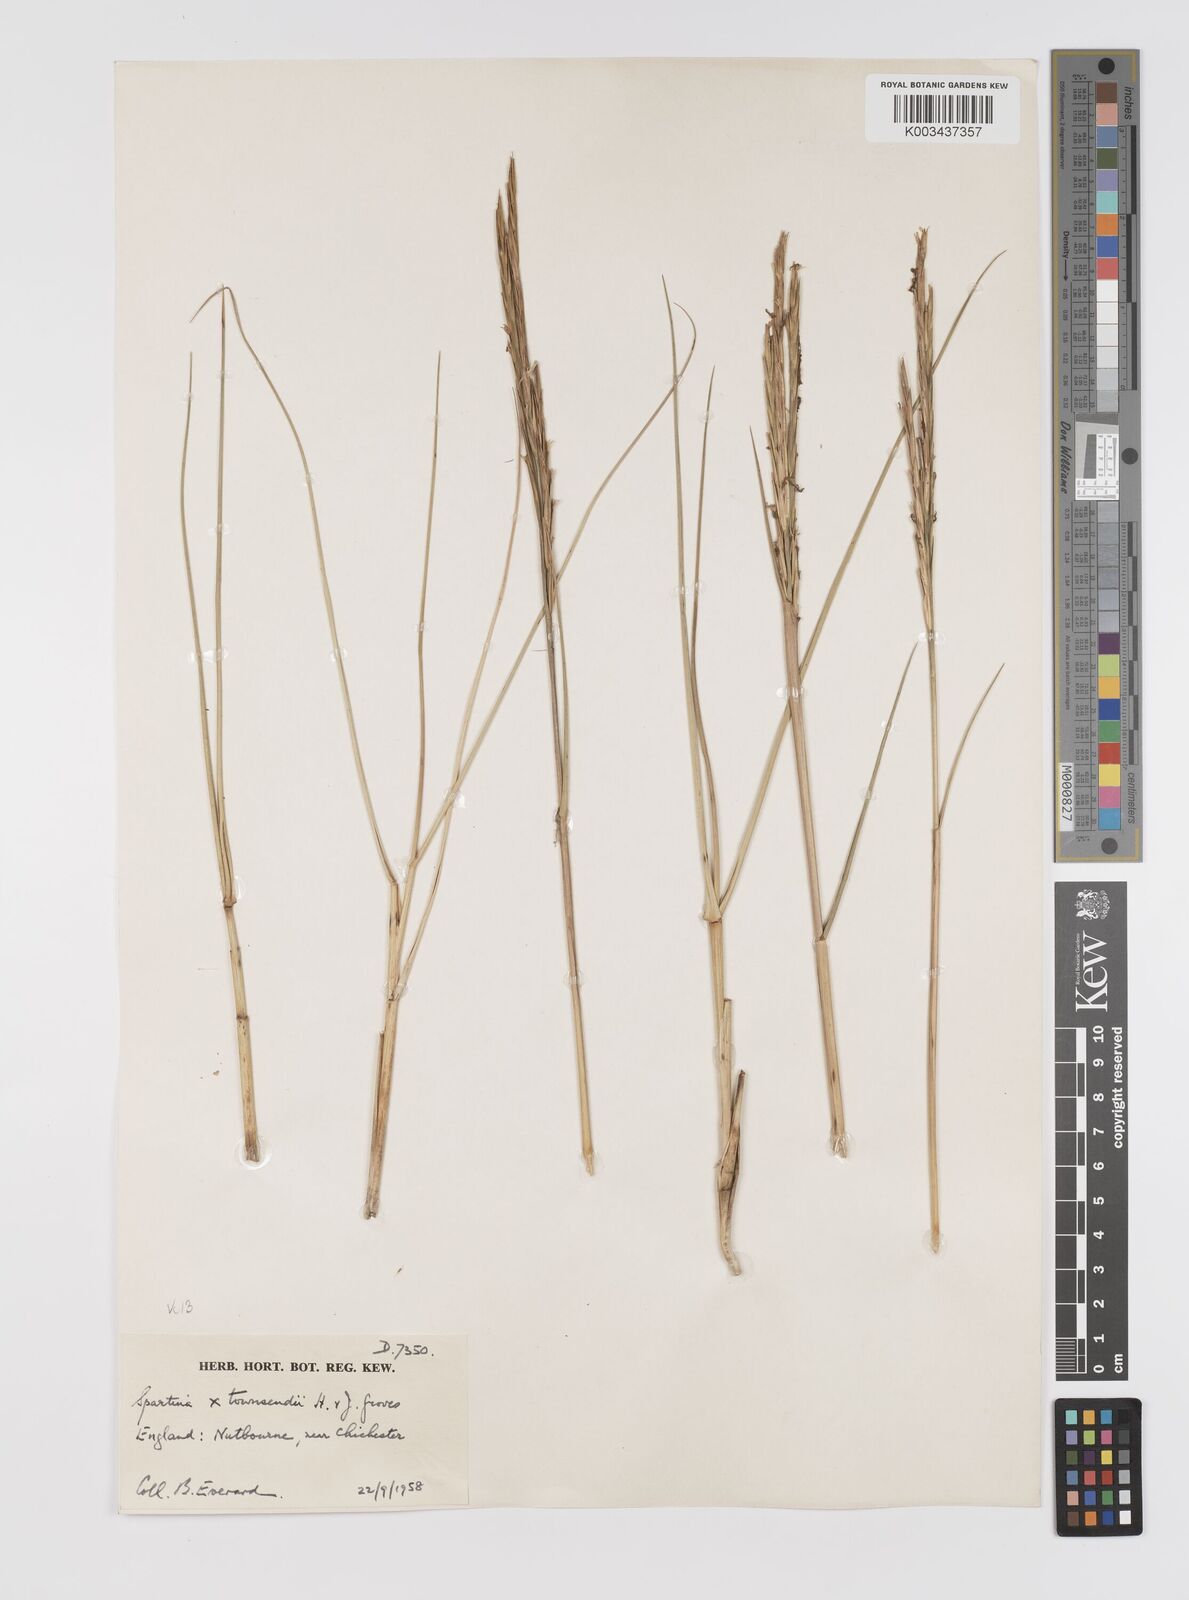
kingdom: Plantae
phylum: Tracheophyta
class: Liliopsida
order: Poales
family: Poaceae
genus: Sporobolus
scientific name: Sporobolus townsendii
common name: Townsend's cordgrass
